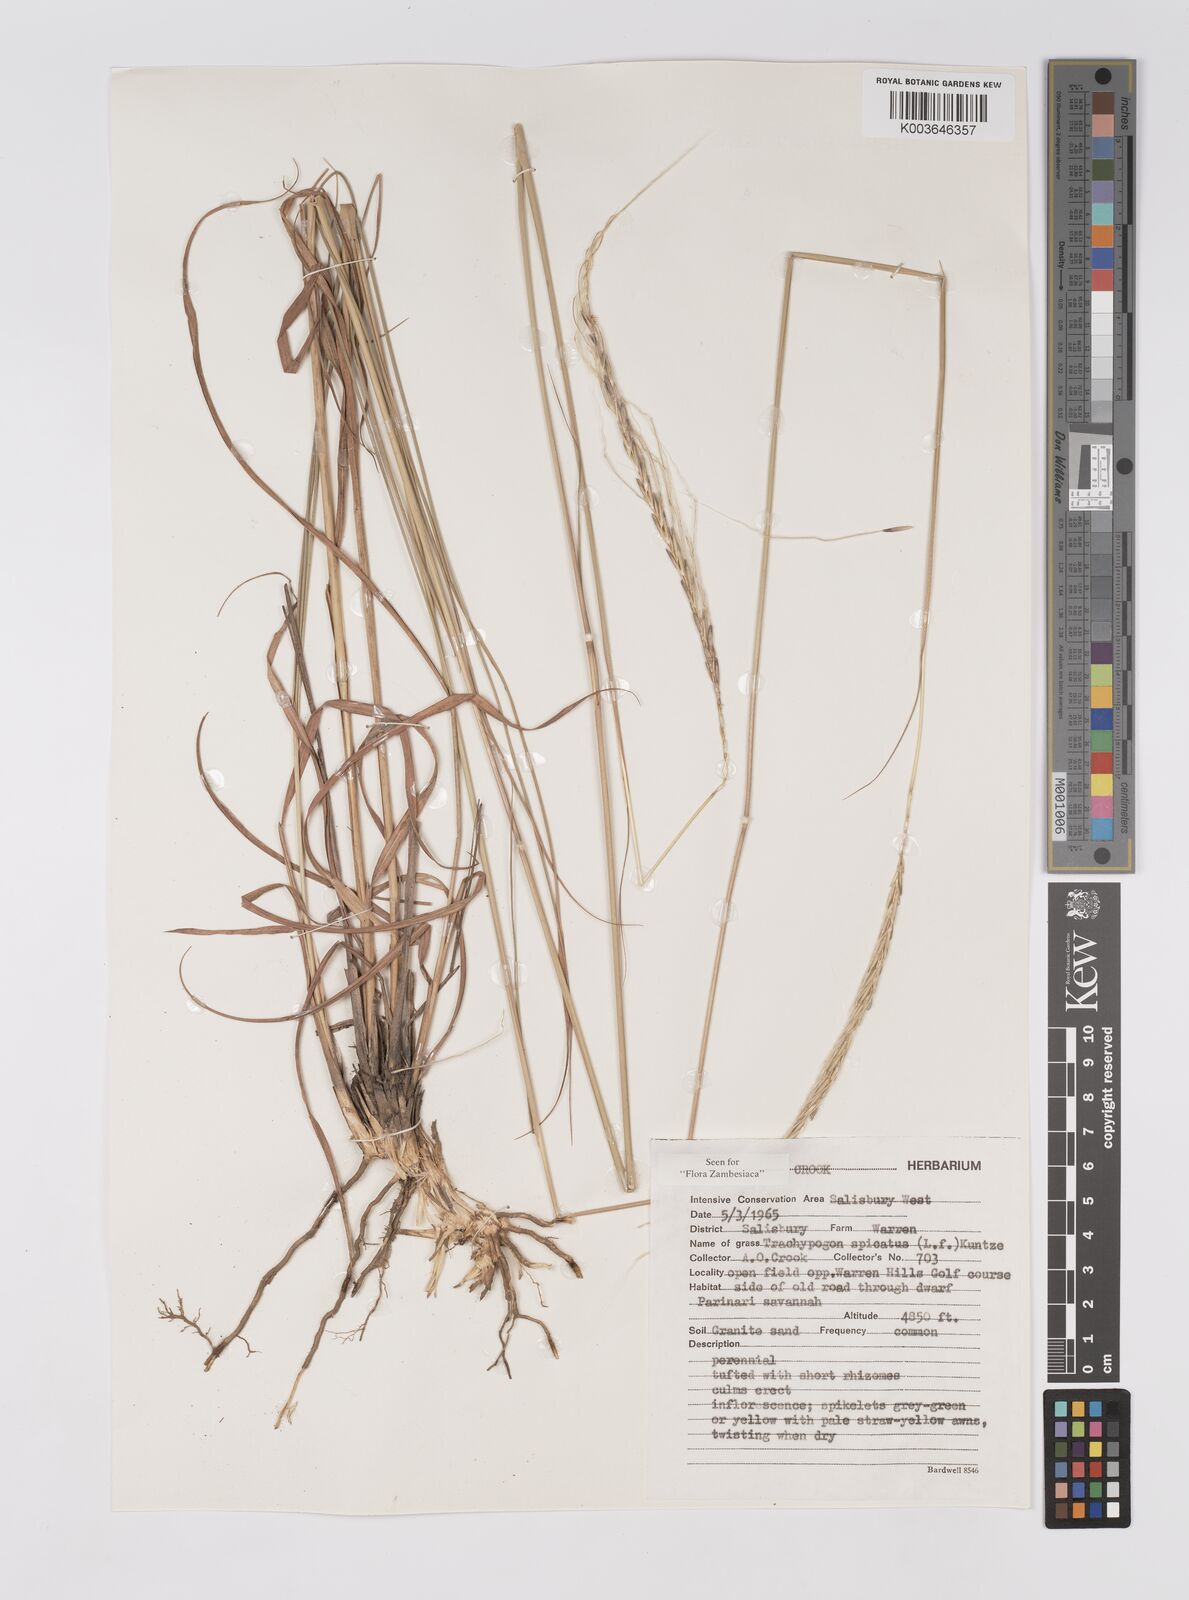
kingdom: Plantae
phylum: Tracheophyta
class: Liliopsida
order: Poales
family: Poaceae
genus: Trachypogon
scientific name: Trachypogon spicatus
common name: Crinkle-awn
